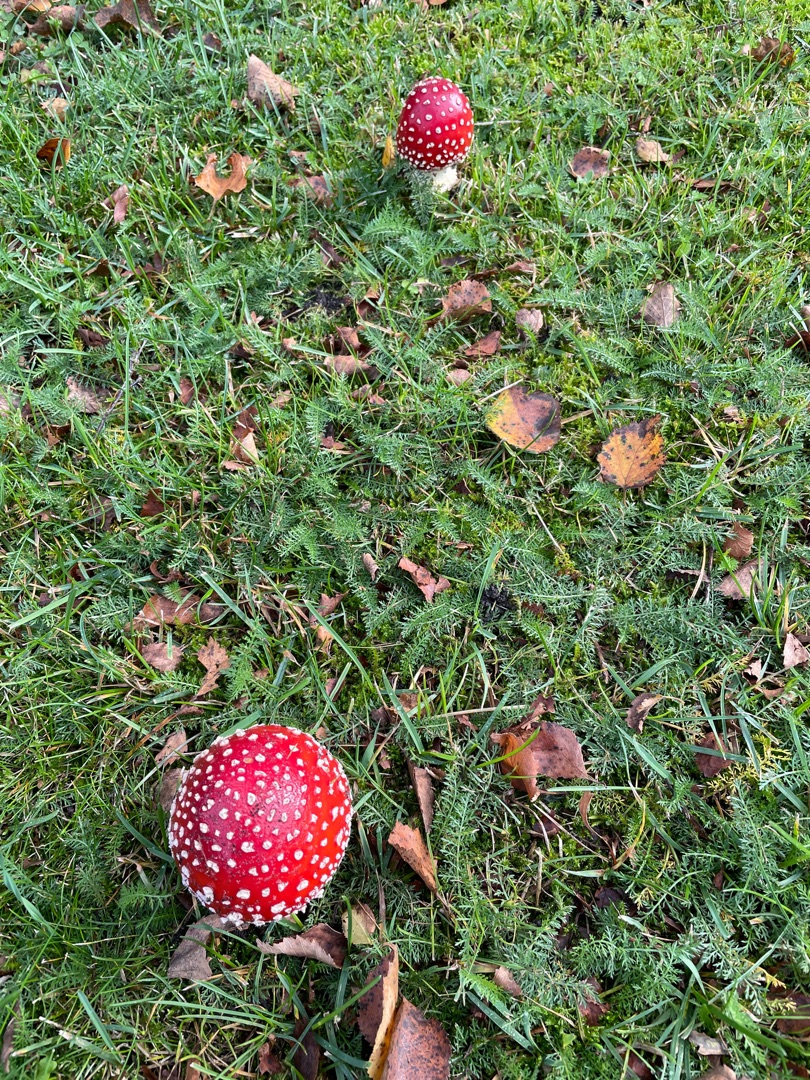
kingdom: Fungi
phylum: Basidiomycota
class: Agaricomycetes
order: Agaricales
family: Amanitaceae
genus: Amanita
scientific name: Amanita muscaria
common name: Rød fluesvamp
